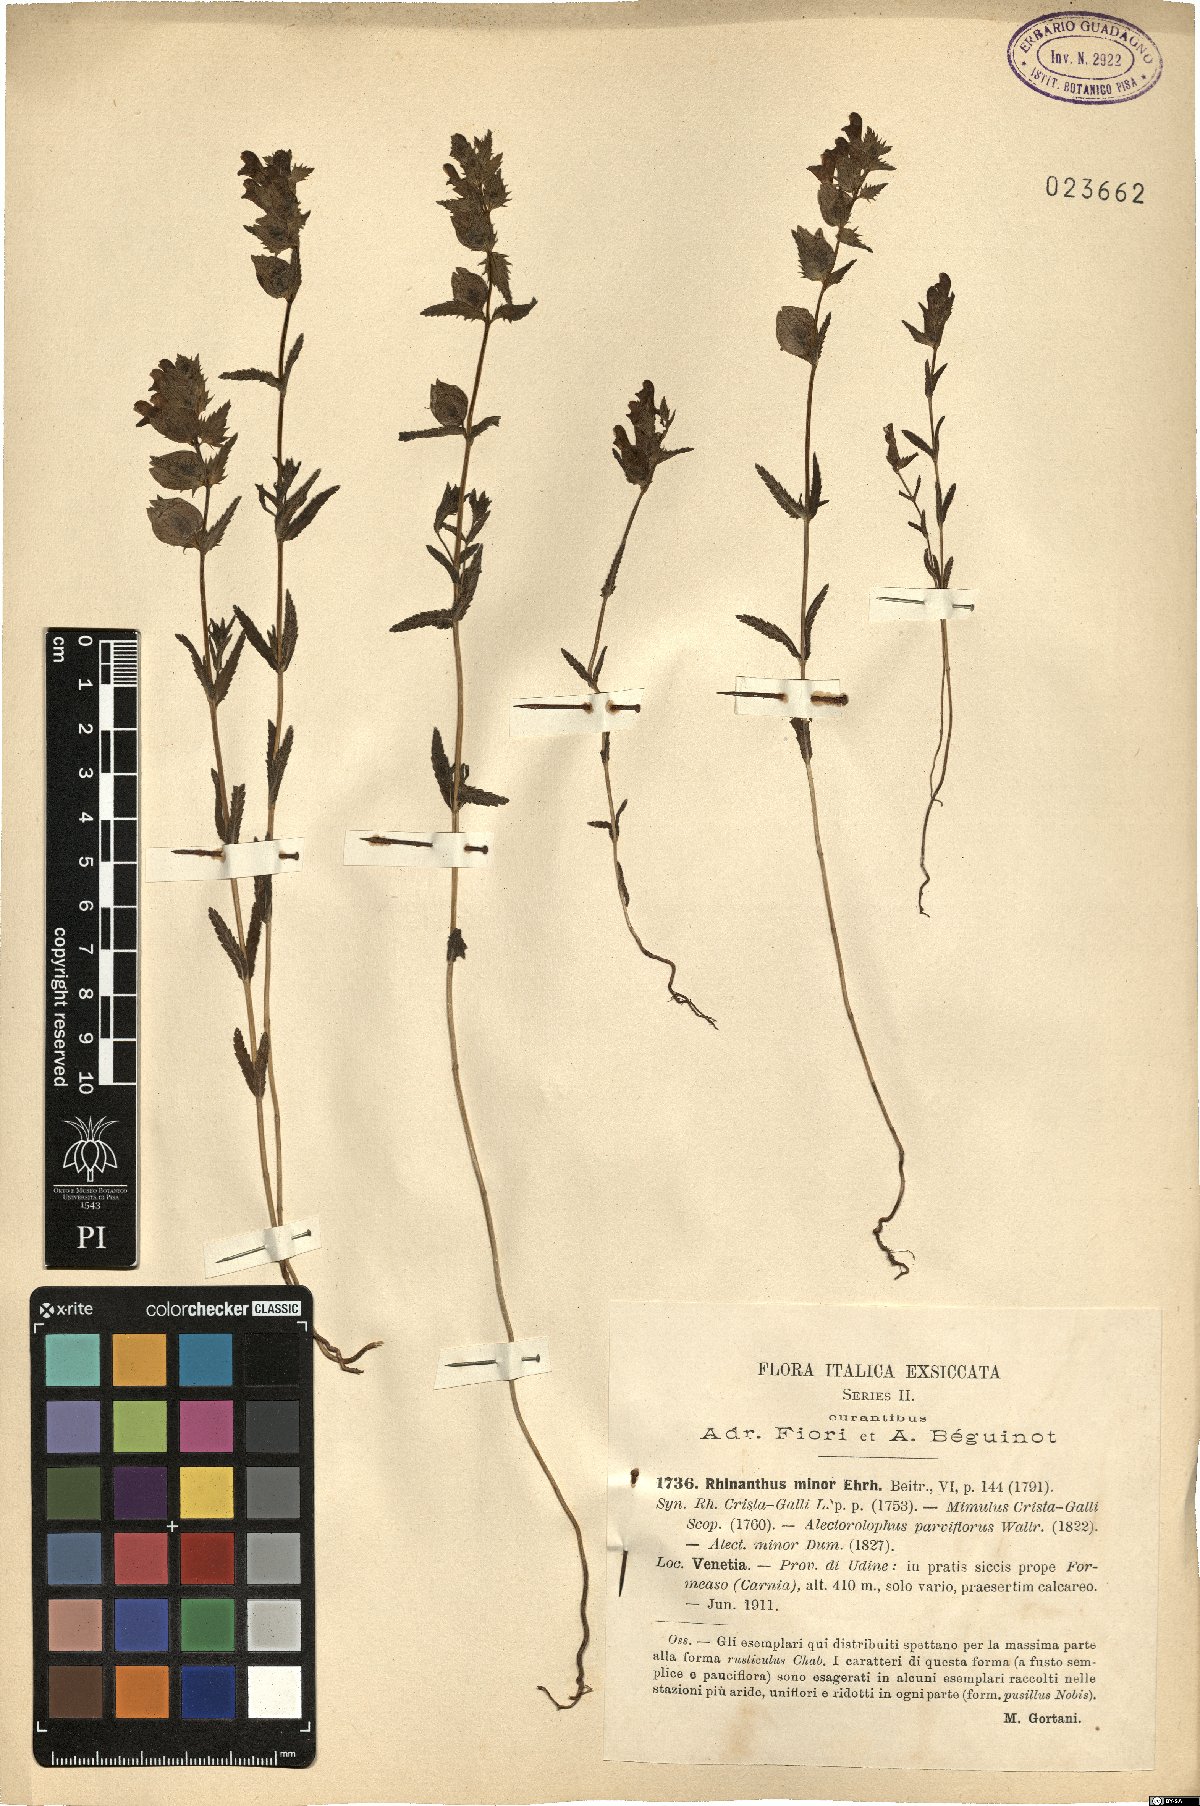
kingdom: Plantae
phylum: Tracheophyta
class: Magnoliopsida
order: Lamiales
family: Orobanchaceae
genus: Rhinanthus
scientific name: Rhinanthus minor
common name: Yellow-rattle
